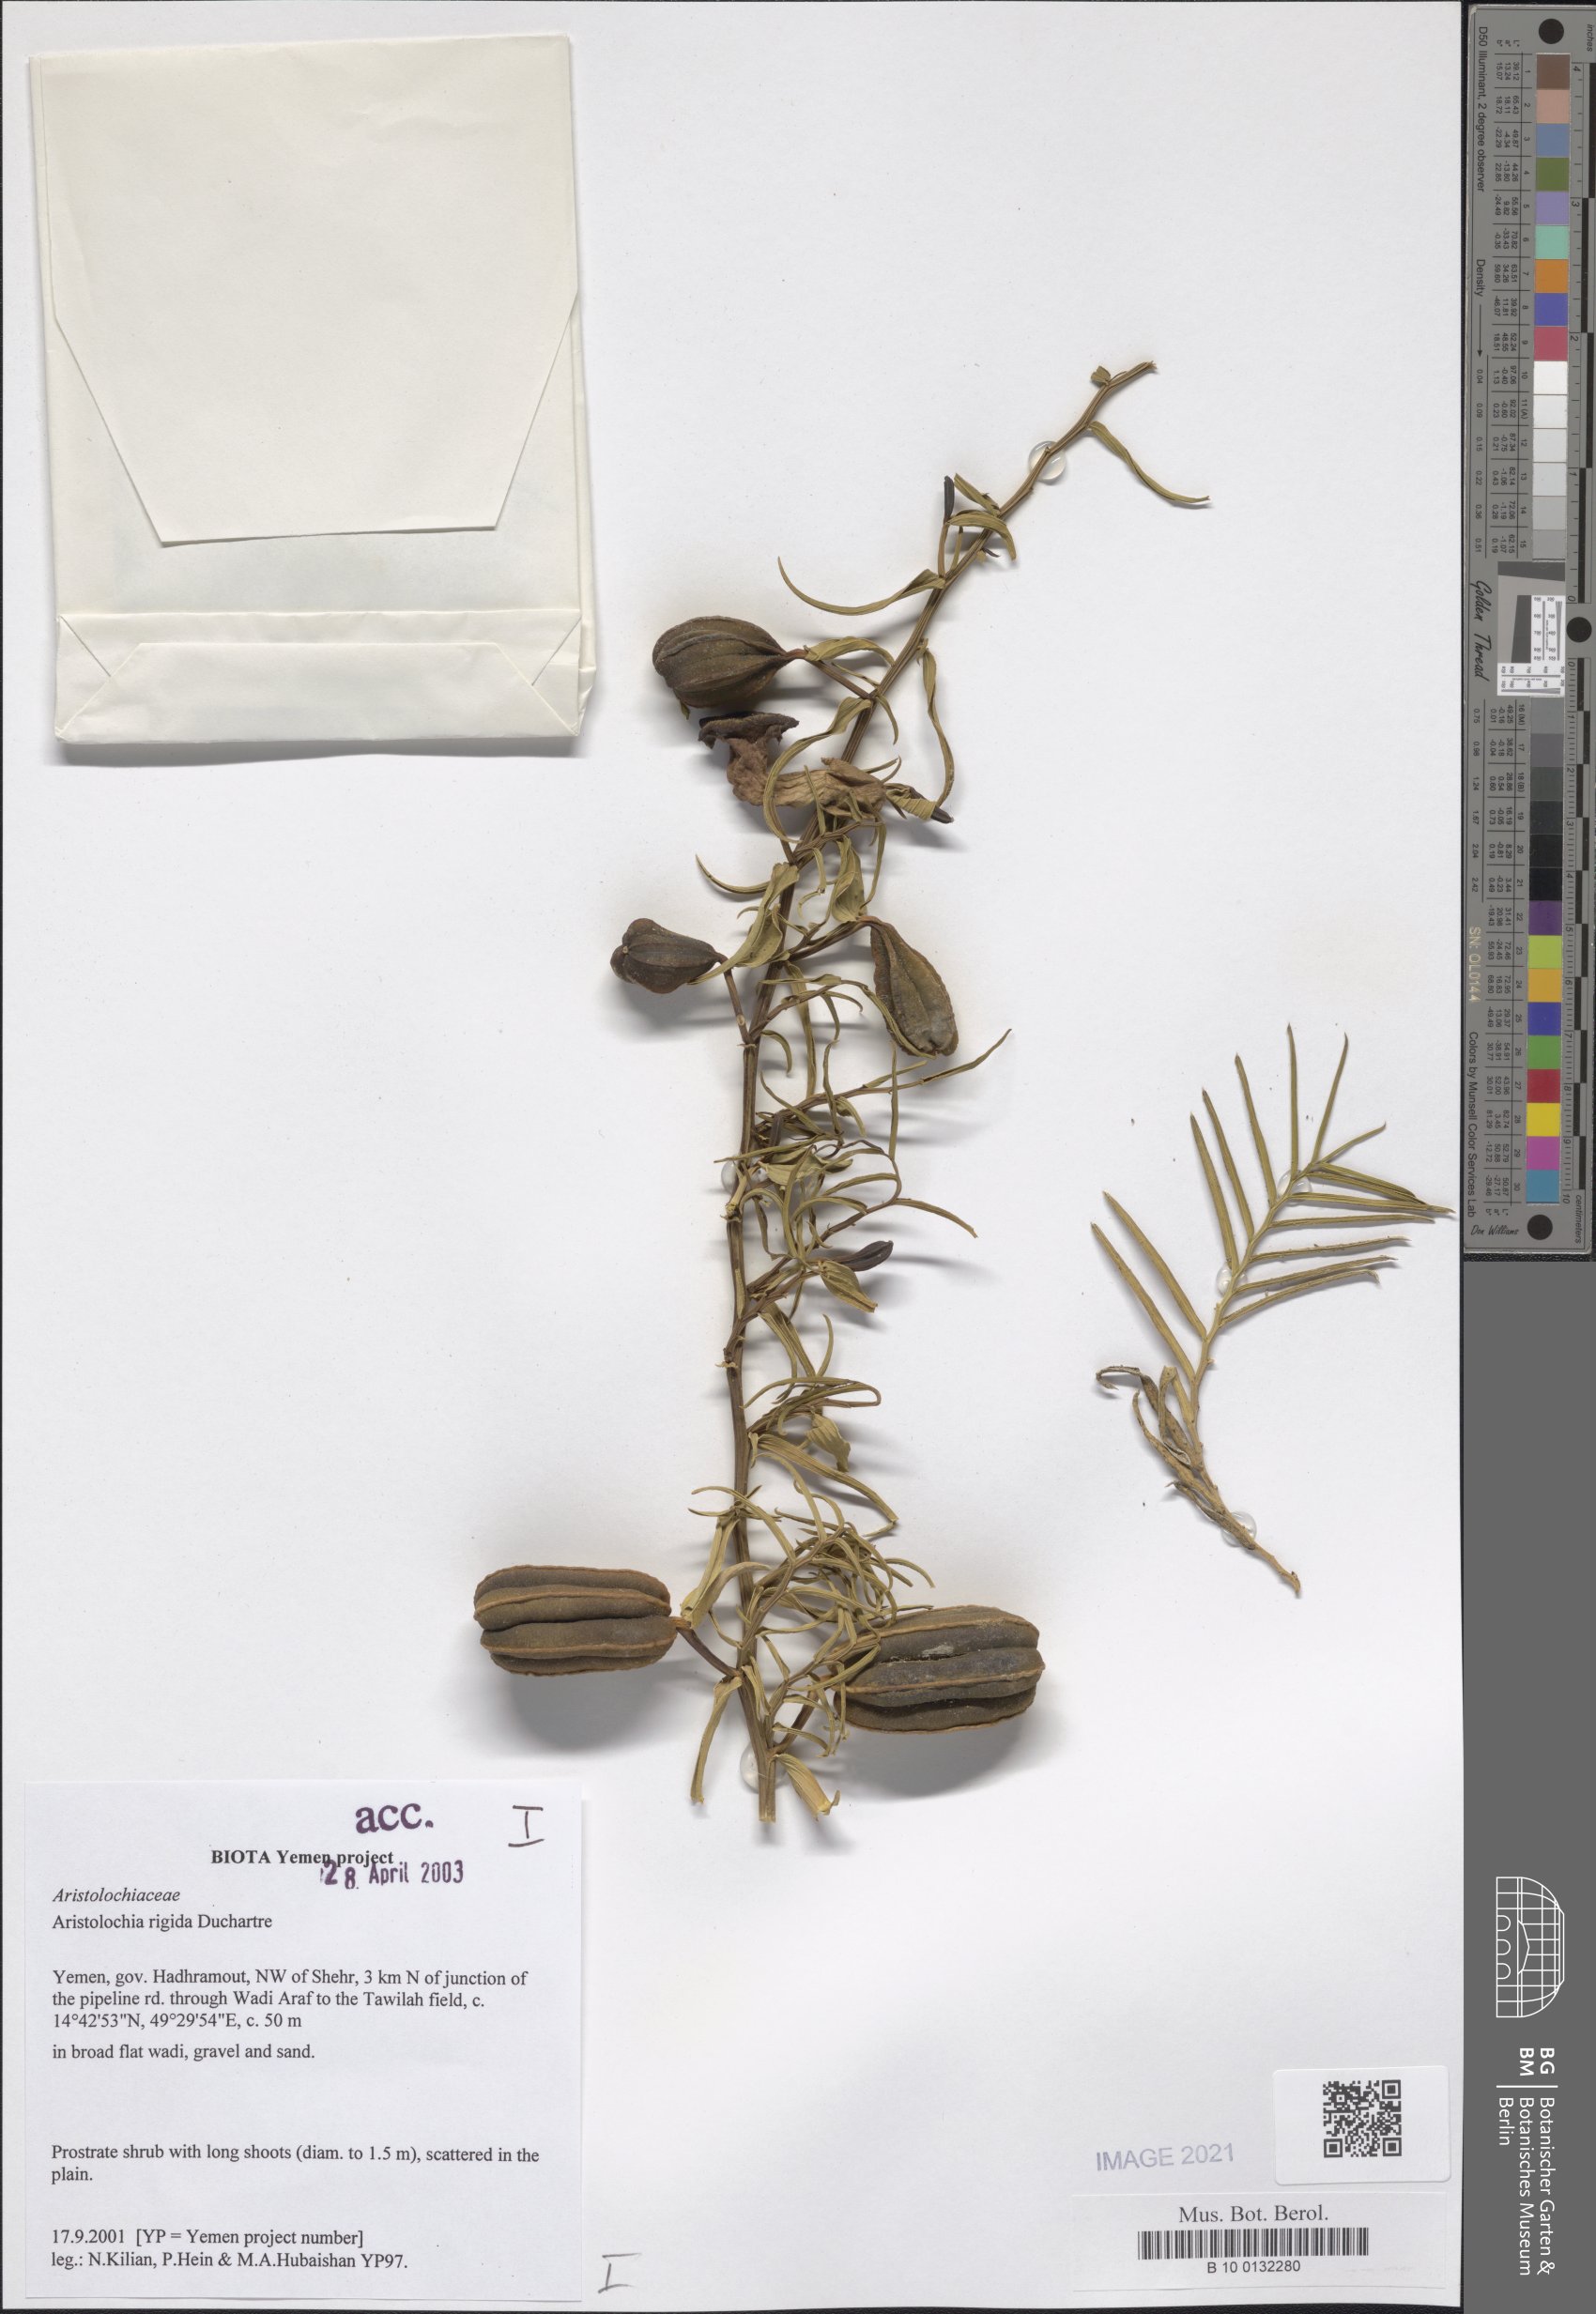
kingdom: Plantae
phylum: Tracheophyta
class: Magnoliopsida
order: Piperales
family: Aristolochiaceae
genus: Aristolochia
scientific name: Aristolochia rigida
